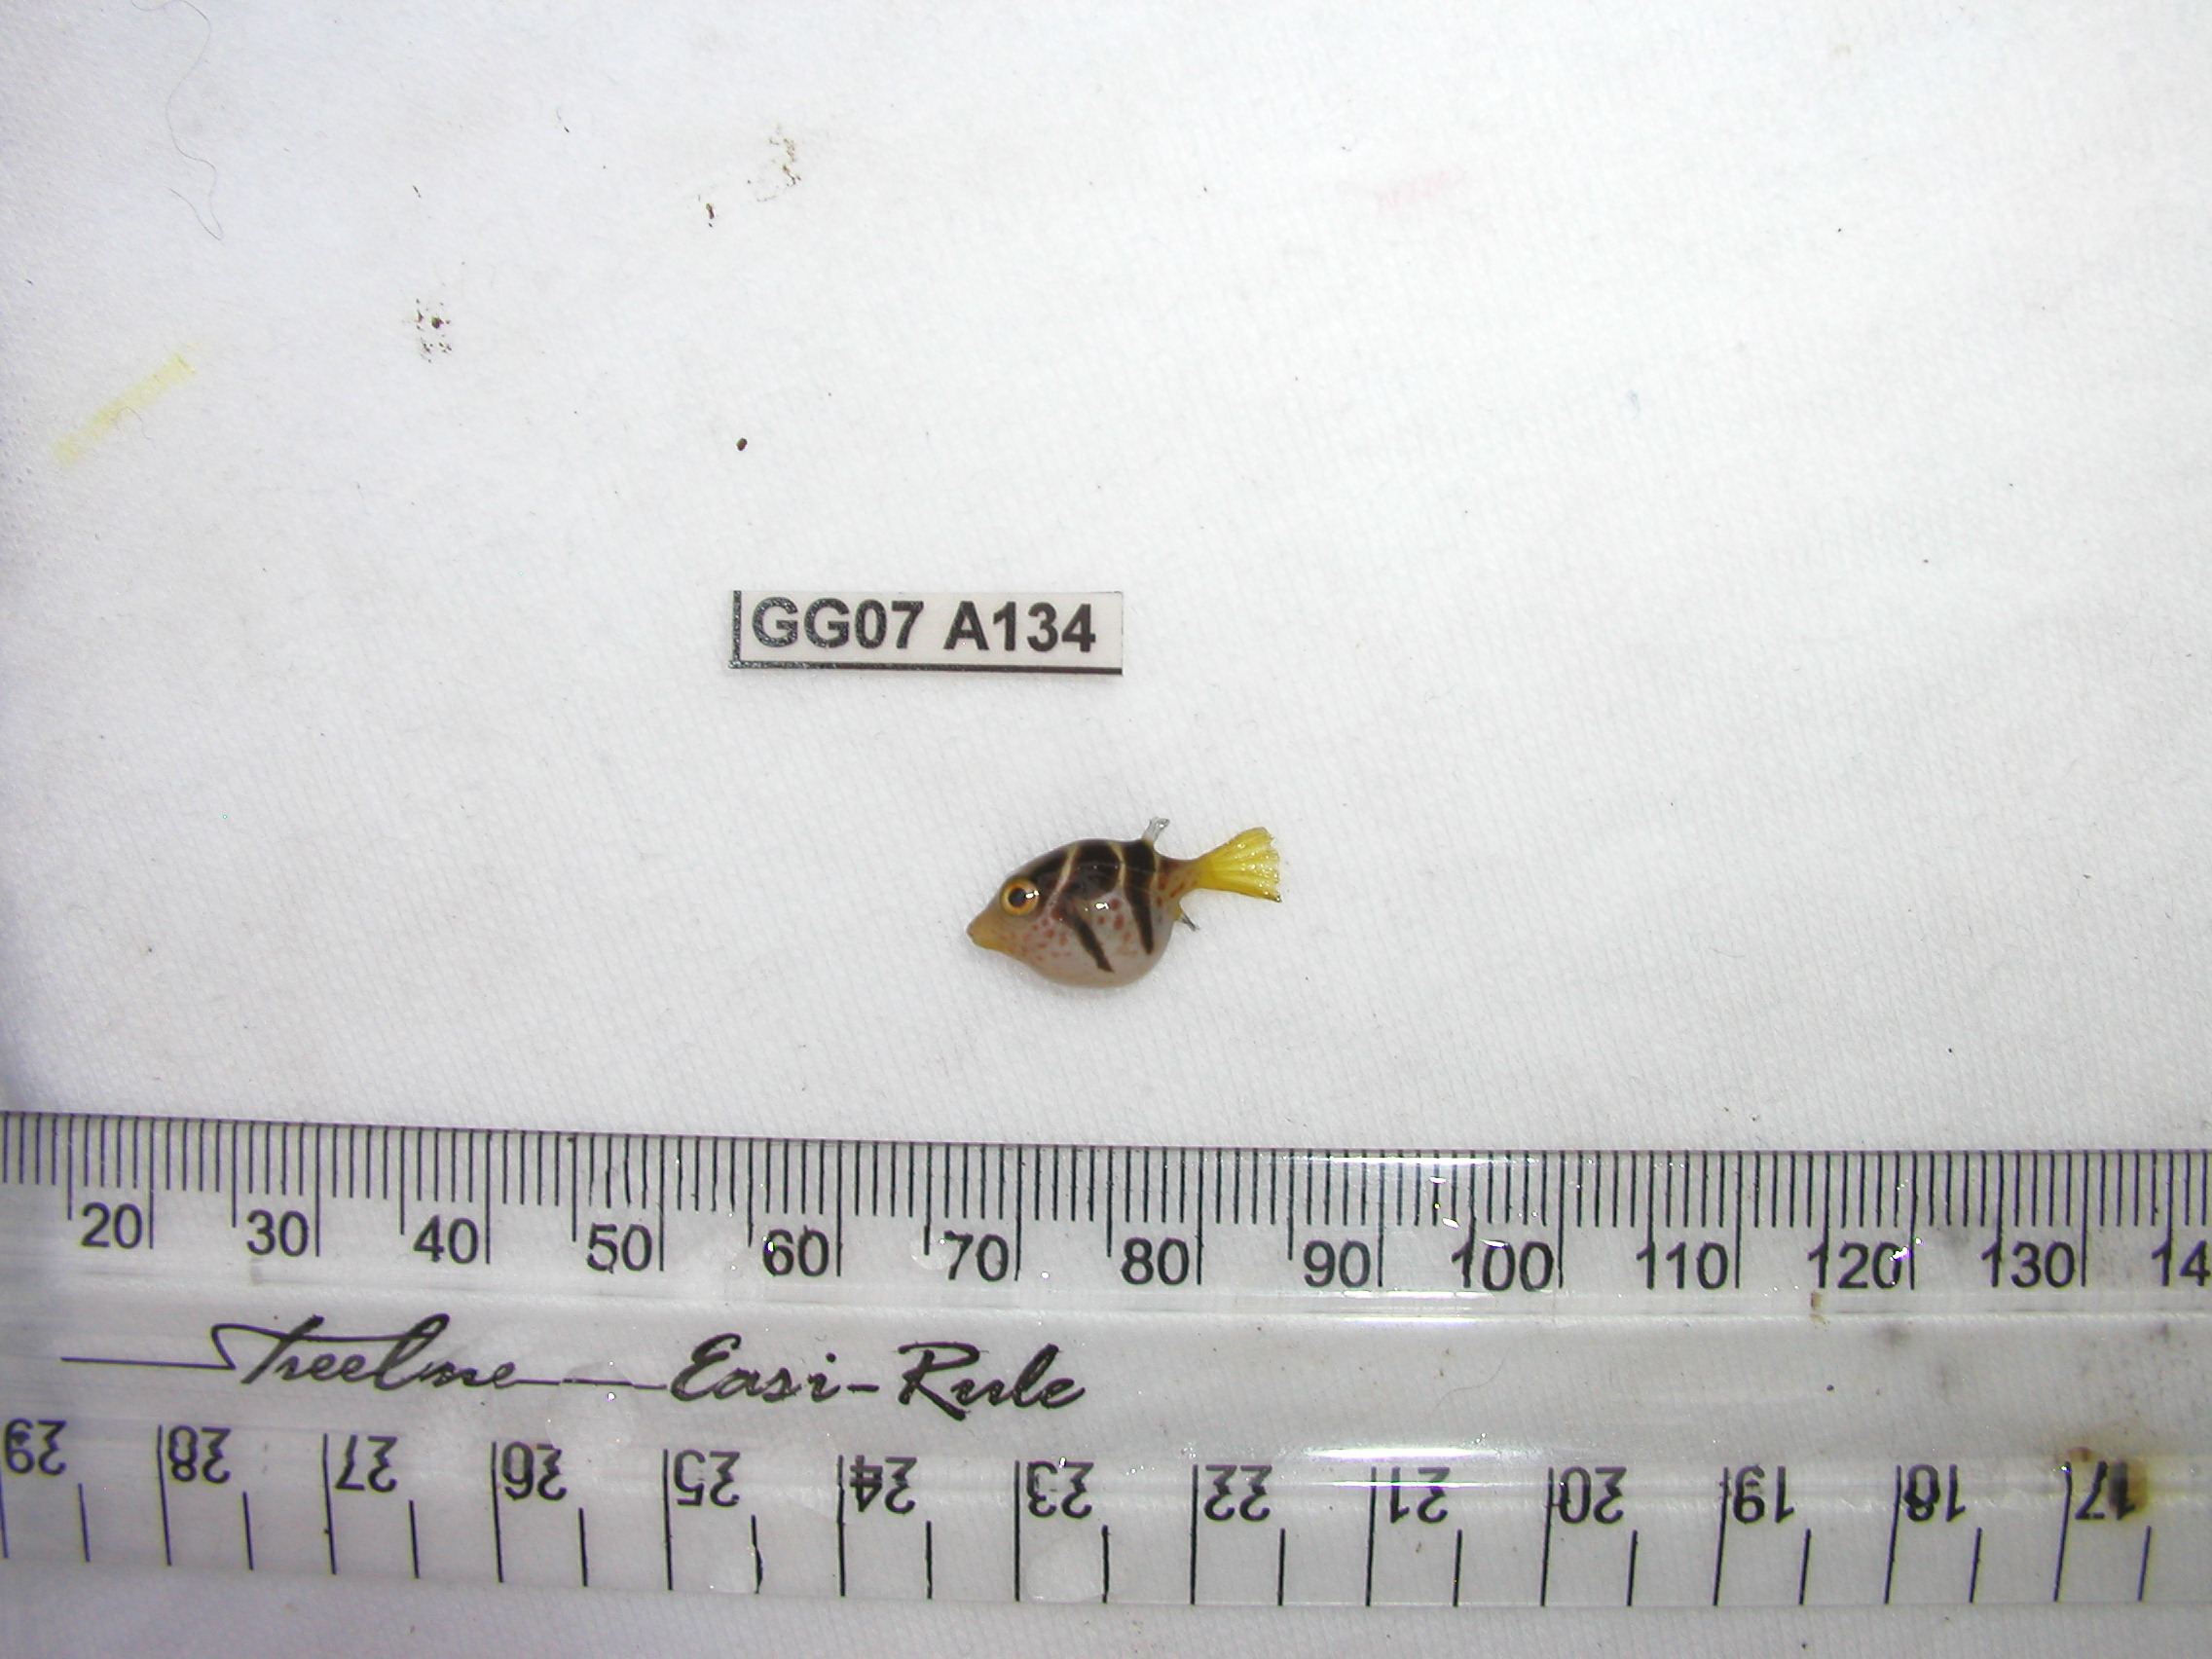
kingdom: Animalia
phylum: Chordata
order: Tetraodontiformes
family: Tetraodontidae
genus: Canthigaster
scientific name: Canthigaster valentini
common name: Banded toby
